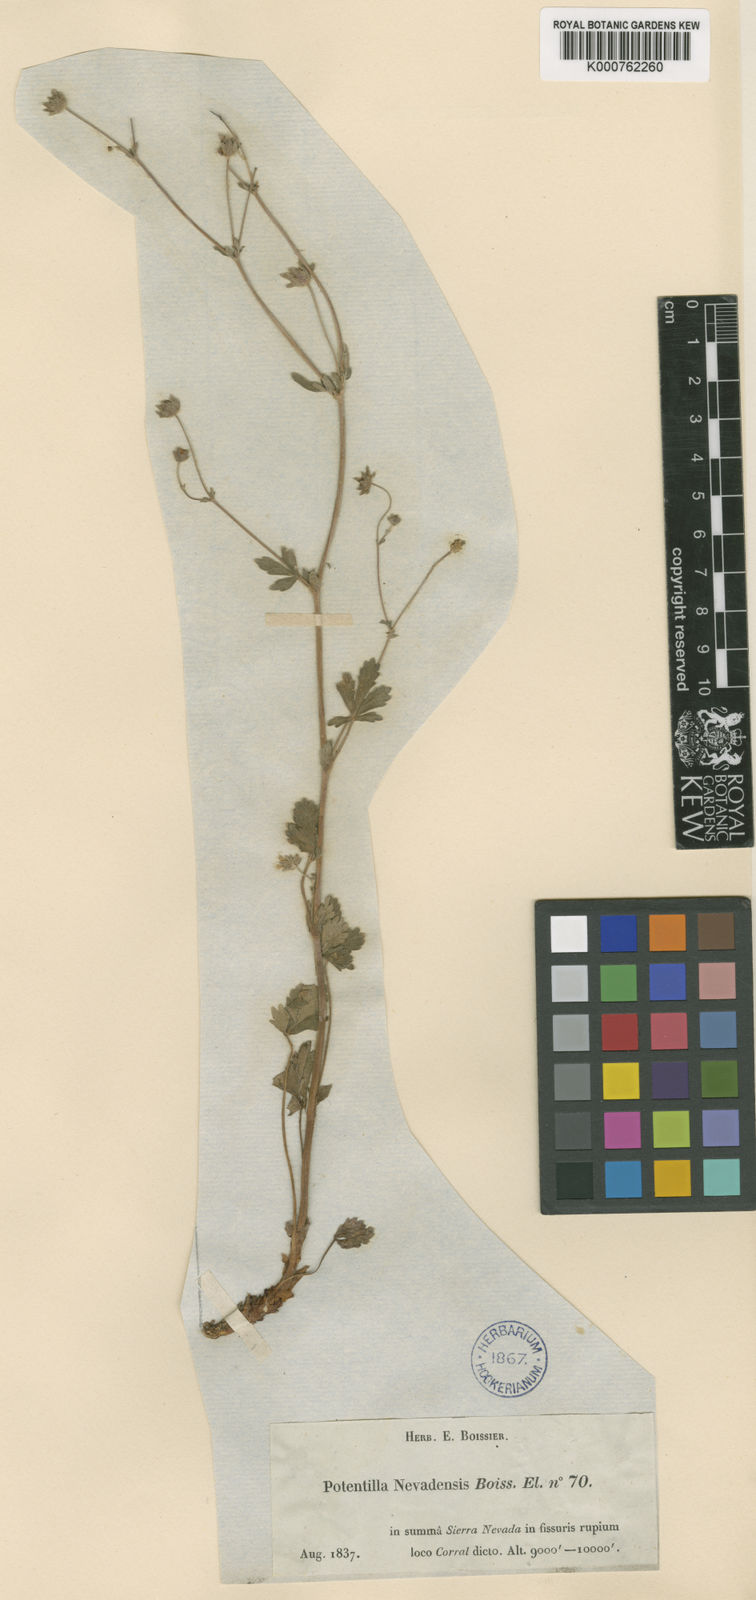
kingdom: Plantae
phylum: Tracheophyta
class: Magnoliopsida
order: Rosales
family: Rosaceae
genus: Potentilla
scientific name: Potentilla nevadensis
